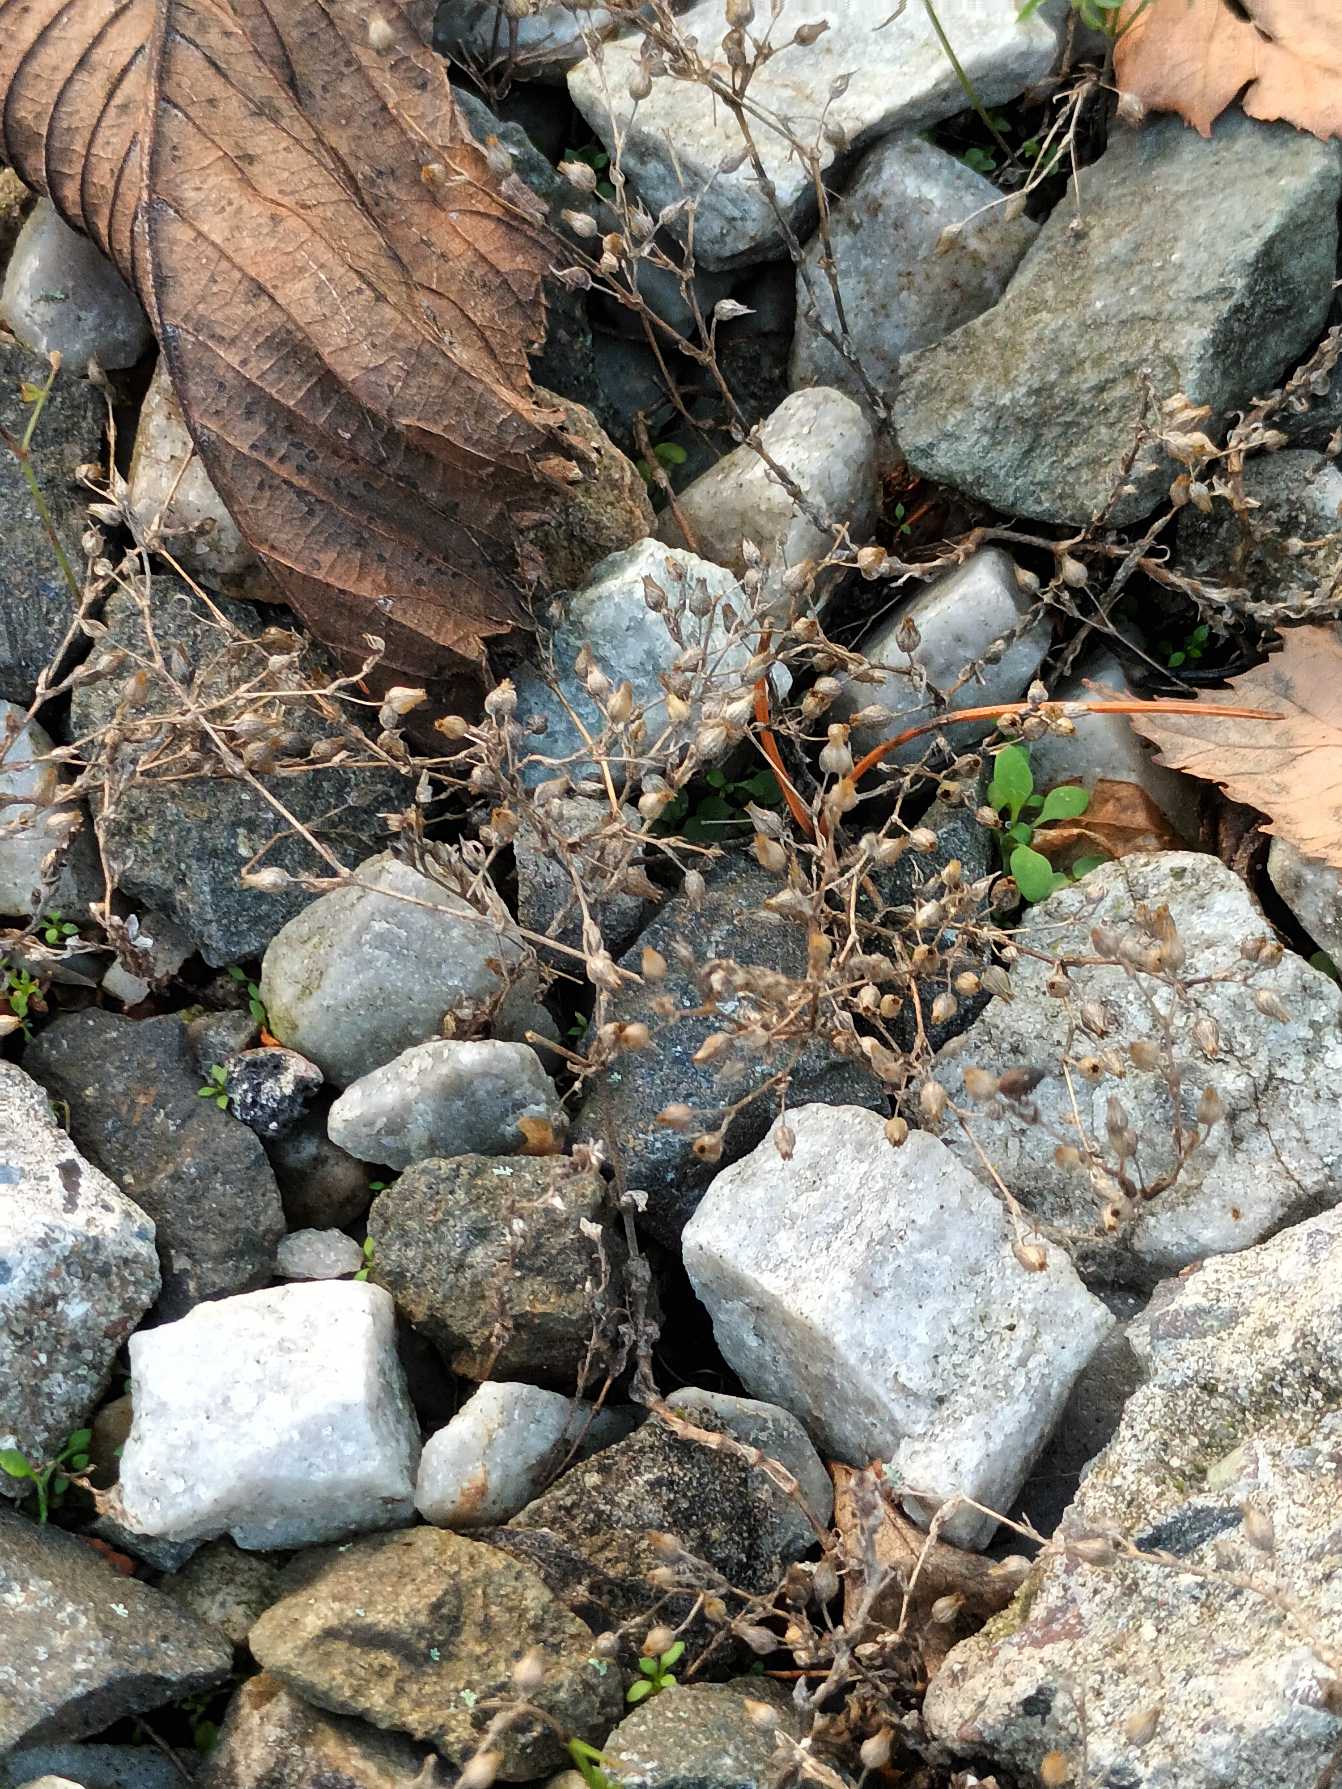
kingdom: Plantae
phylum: Tracheophyta
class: Magnoliopsida
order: Caryophyllales
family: Caryophyllaceae
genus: Arenaria
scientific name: Arenaria serpyllifolia
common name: Almindelig markarve
